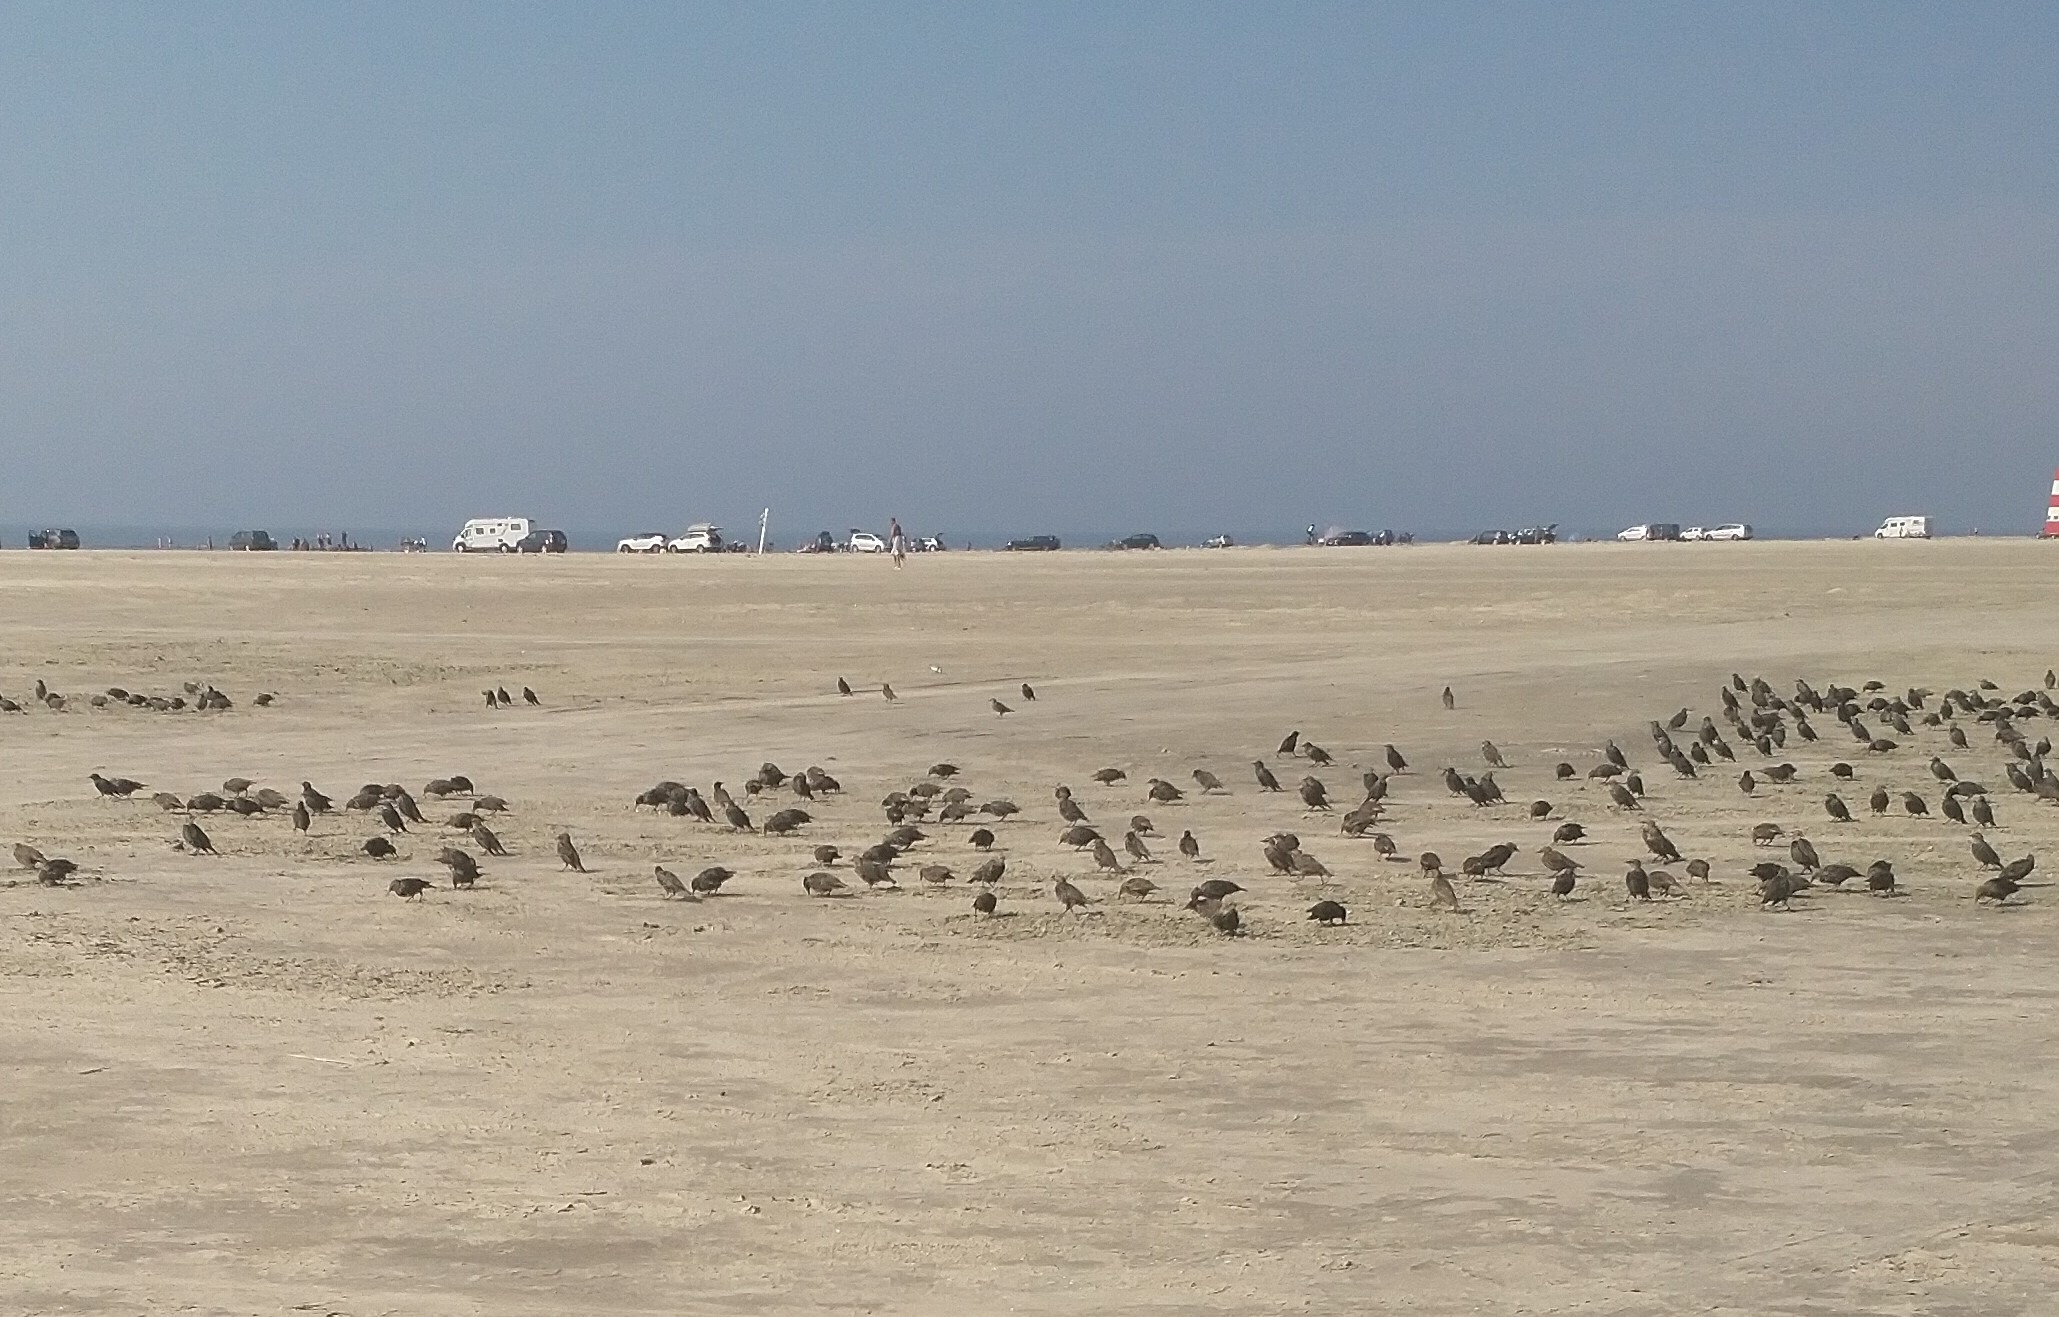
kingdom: Animalia
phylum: Chordata
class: Aves
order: Passeriformes
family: Sturnidae
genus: Sturnus
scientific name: Sturnus vulgaris
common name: Stær
